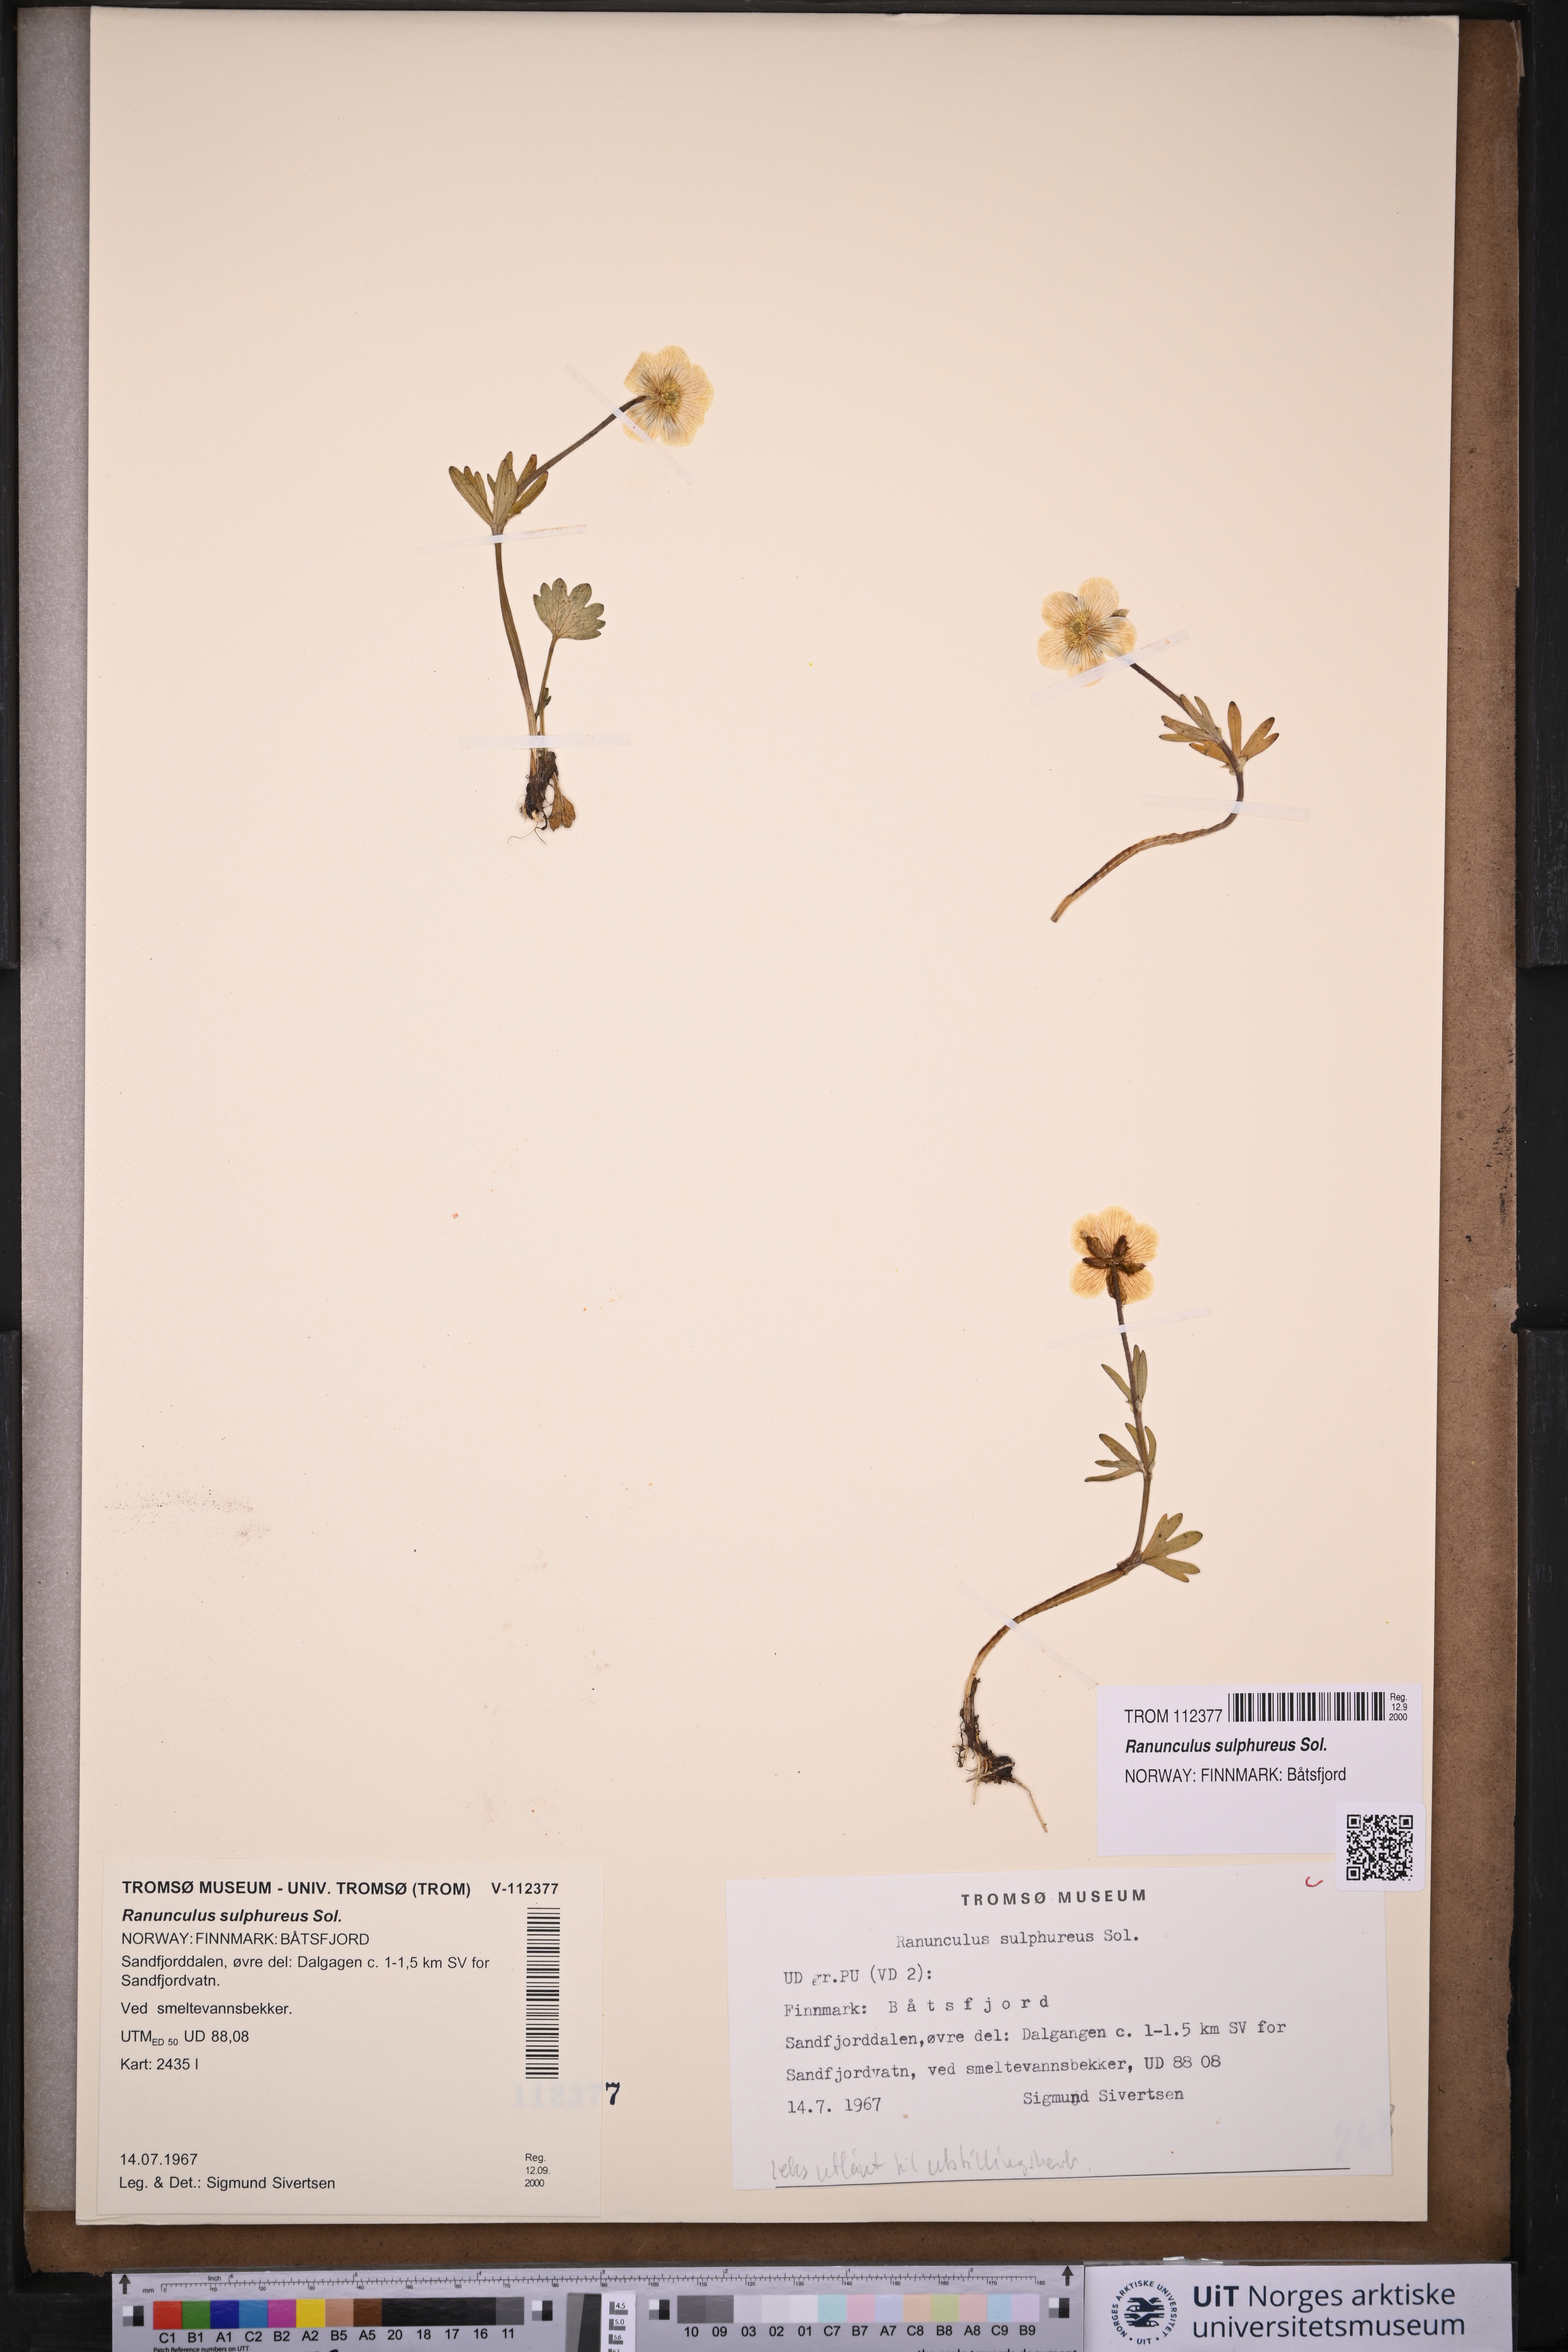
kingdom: Plantae
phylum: Tracheophyta
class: Magnoliopsida
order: Ranunculales
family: Ranunculaceae
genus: Ranunculus
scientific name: Ranunculus sulphureus
